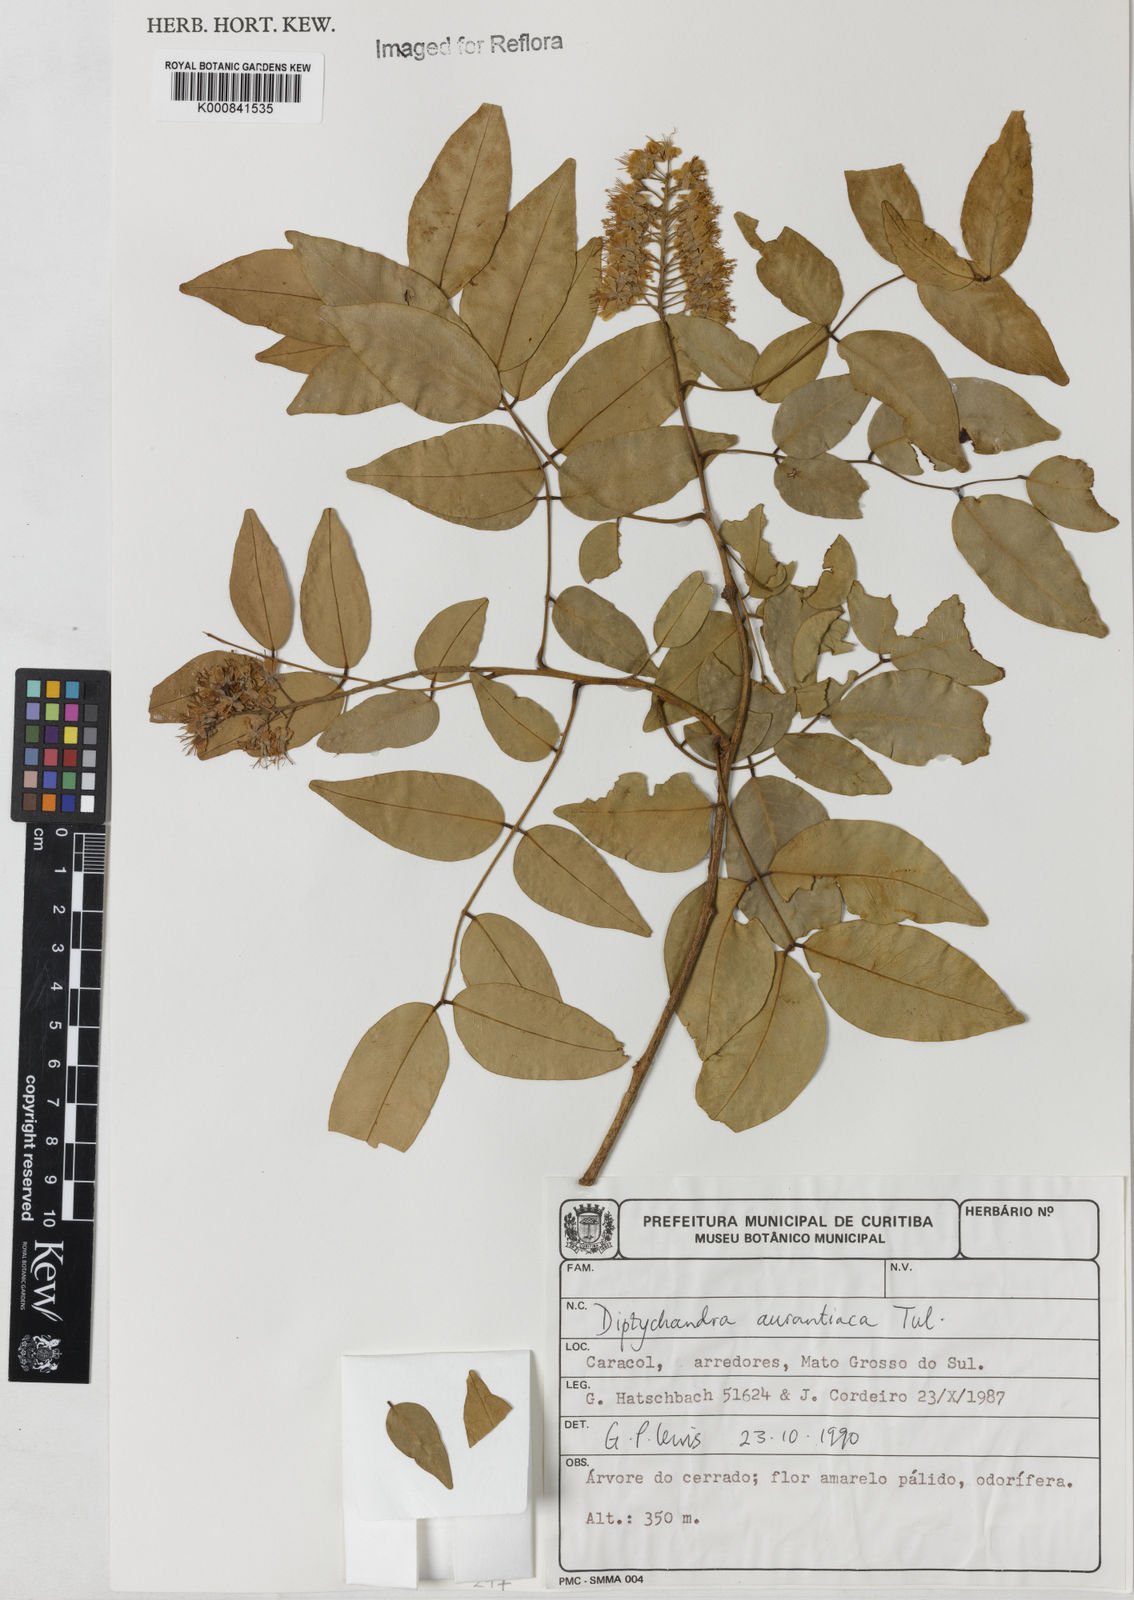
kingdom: Plantae
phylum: Tracheophyta
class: Magnoliopsida
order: Fabales
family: Fabaceae
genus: Diptychandra
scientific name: Diptychandra aurantiaca
